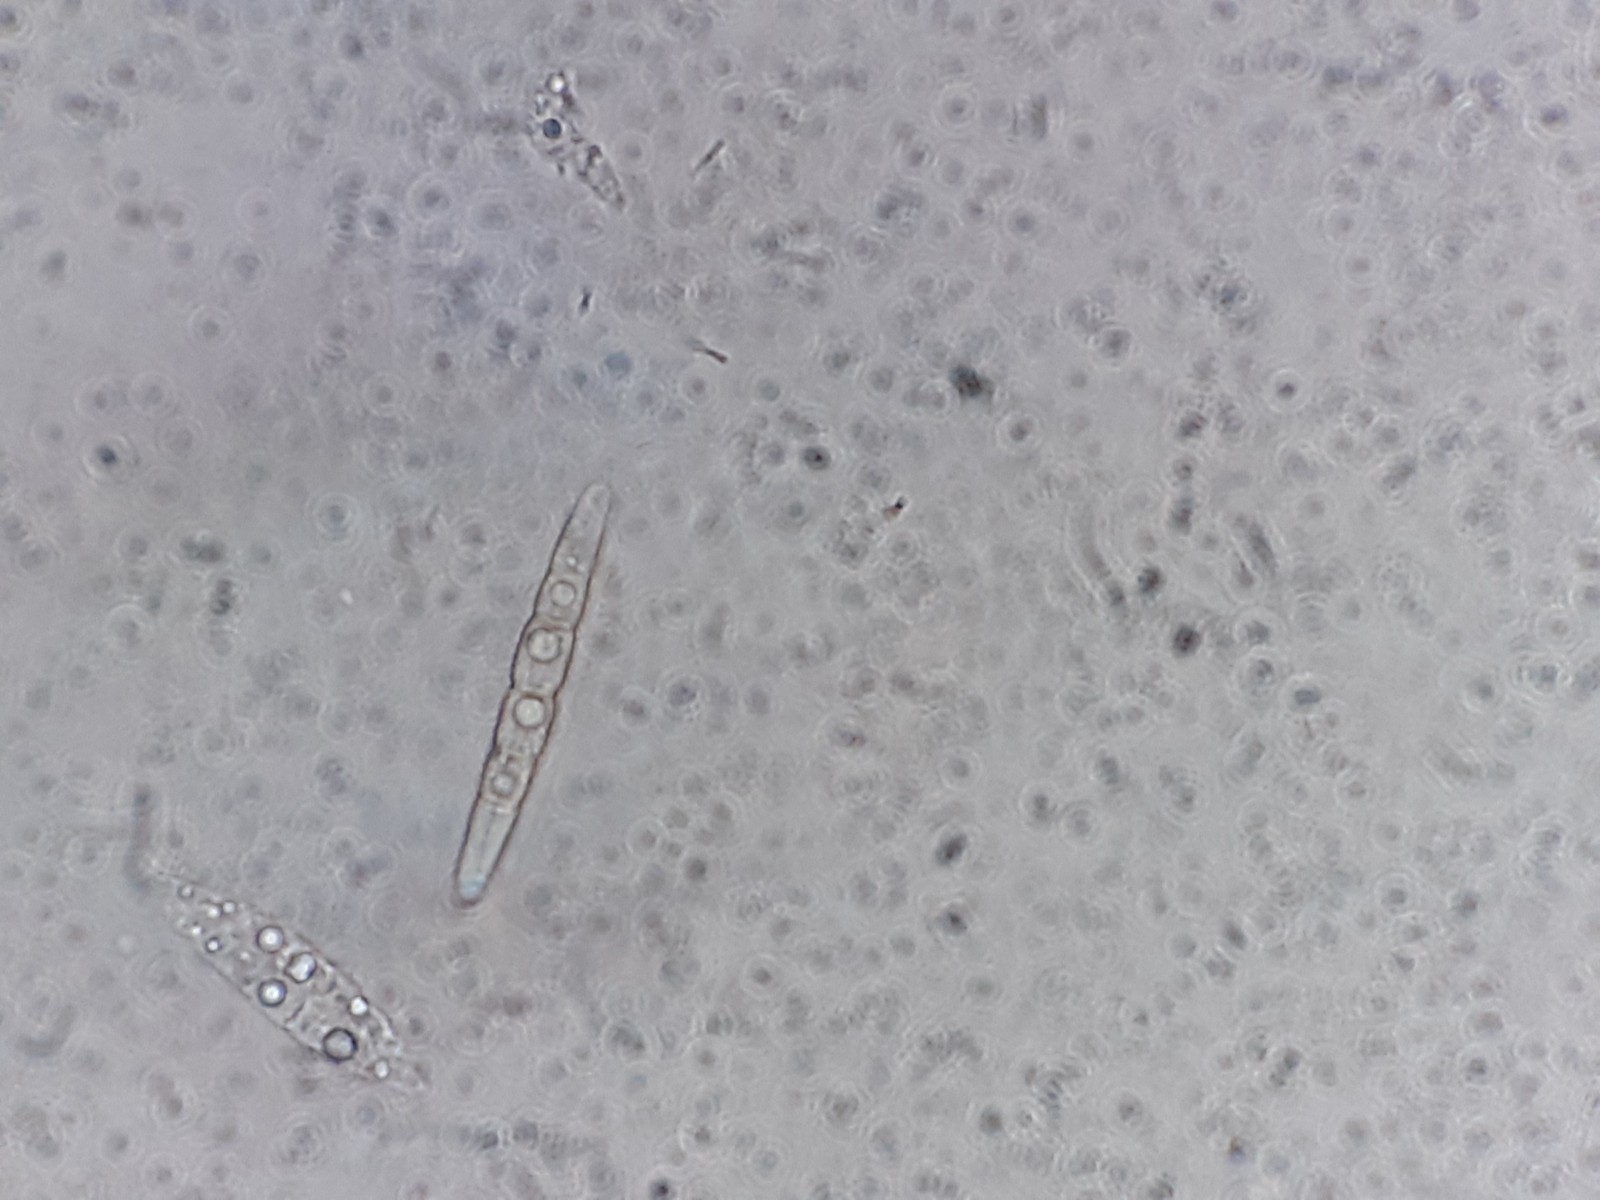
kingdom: Fungi
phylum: Ascomycota
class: Dothideomycetes
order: Pleosporales
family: Phaeosphaeriaceae
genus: Phaeosphaeria
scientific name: Phaeosphaeria sowerbyi
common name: kål-kulkegle
